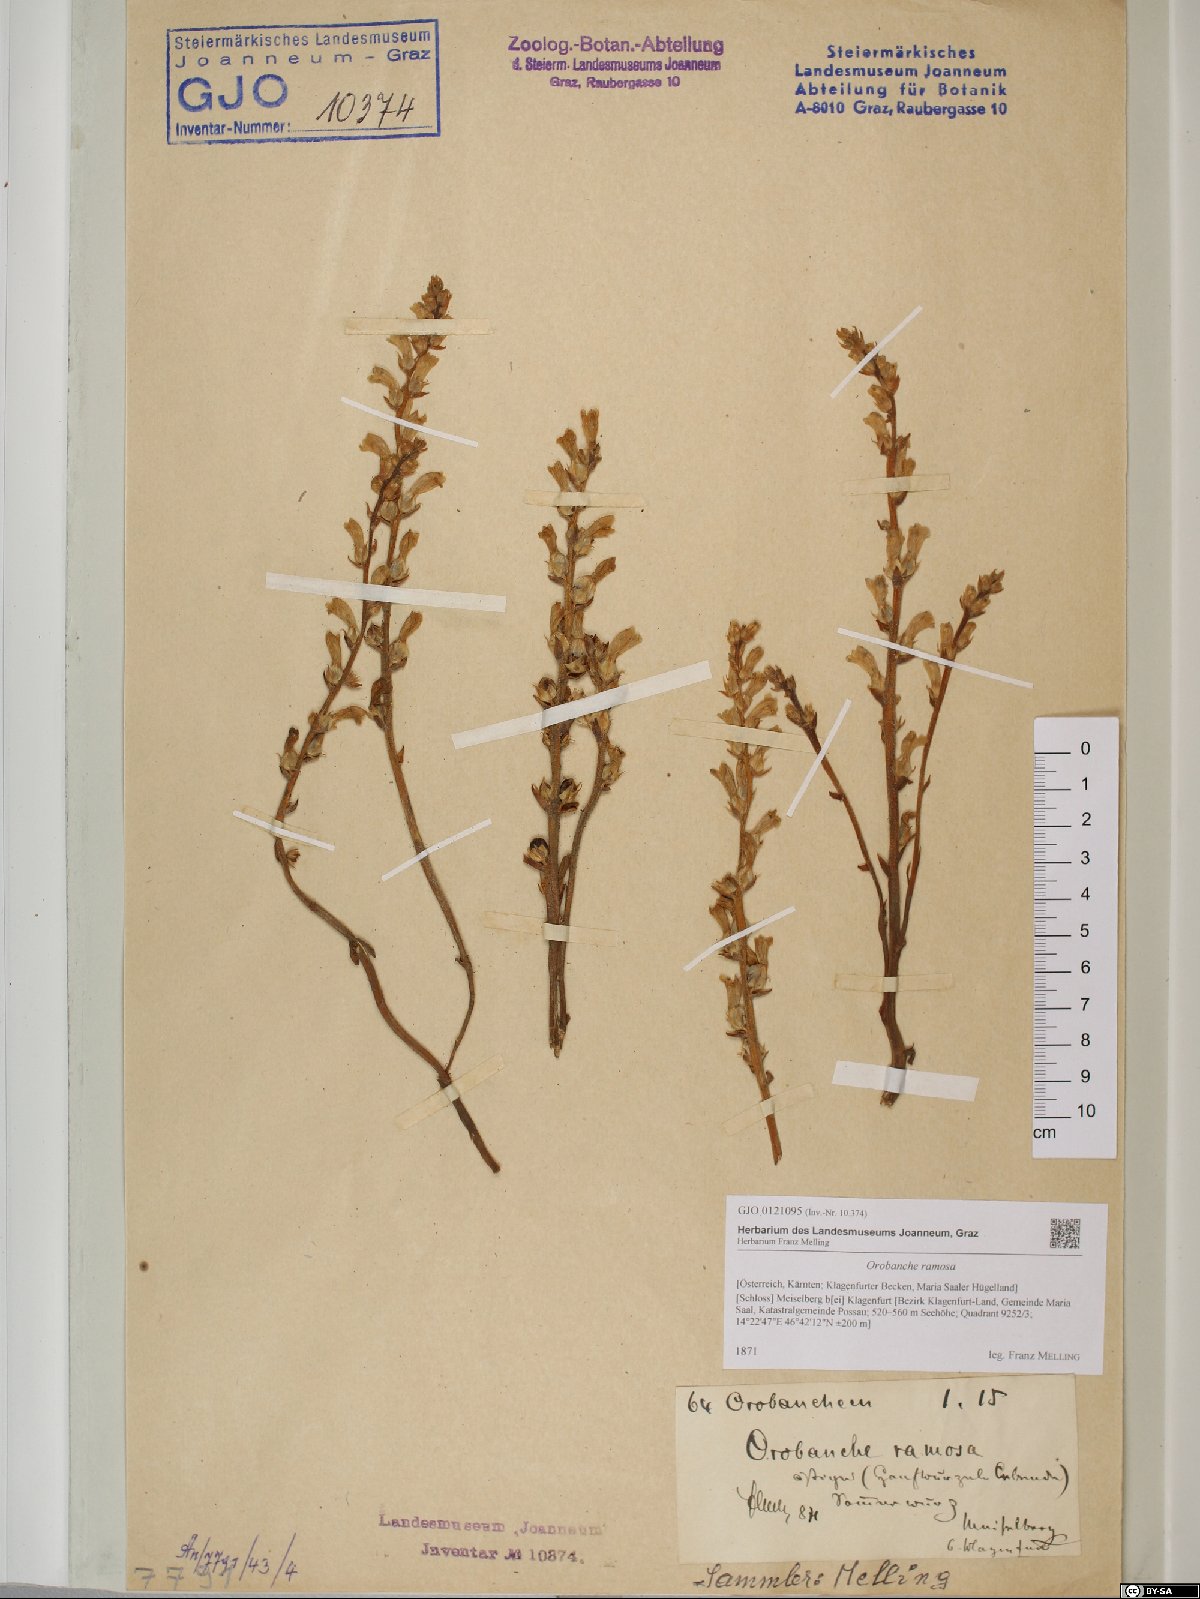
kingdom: Plantae
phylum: Tracheophyta
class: Magnoliopsida
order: Lamiales
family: Orobanchaceae
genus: Phelipanche
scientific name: Phelipanche ramosa
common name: Branched broomrape
